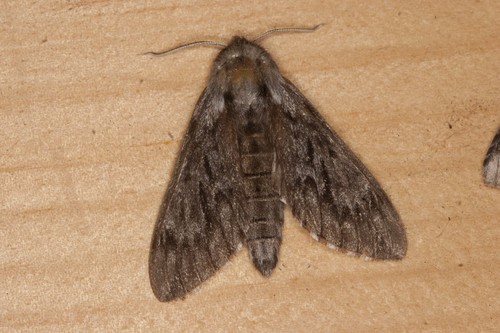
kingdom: Animalia
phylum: Arthropoda
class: Insecta
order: Lepidoptera
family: Sphingidae
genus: Lapara
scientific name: Lapara bombycoides
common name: Northern pine sphinx
